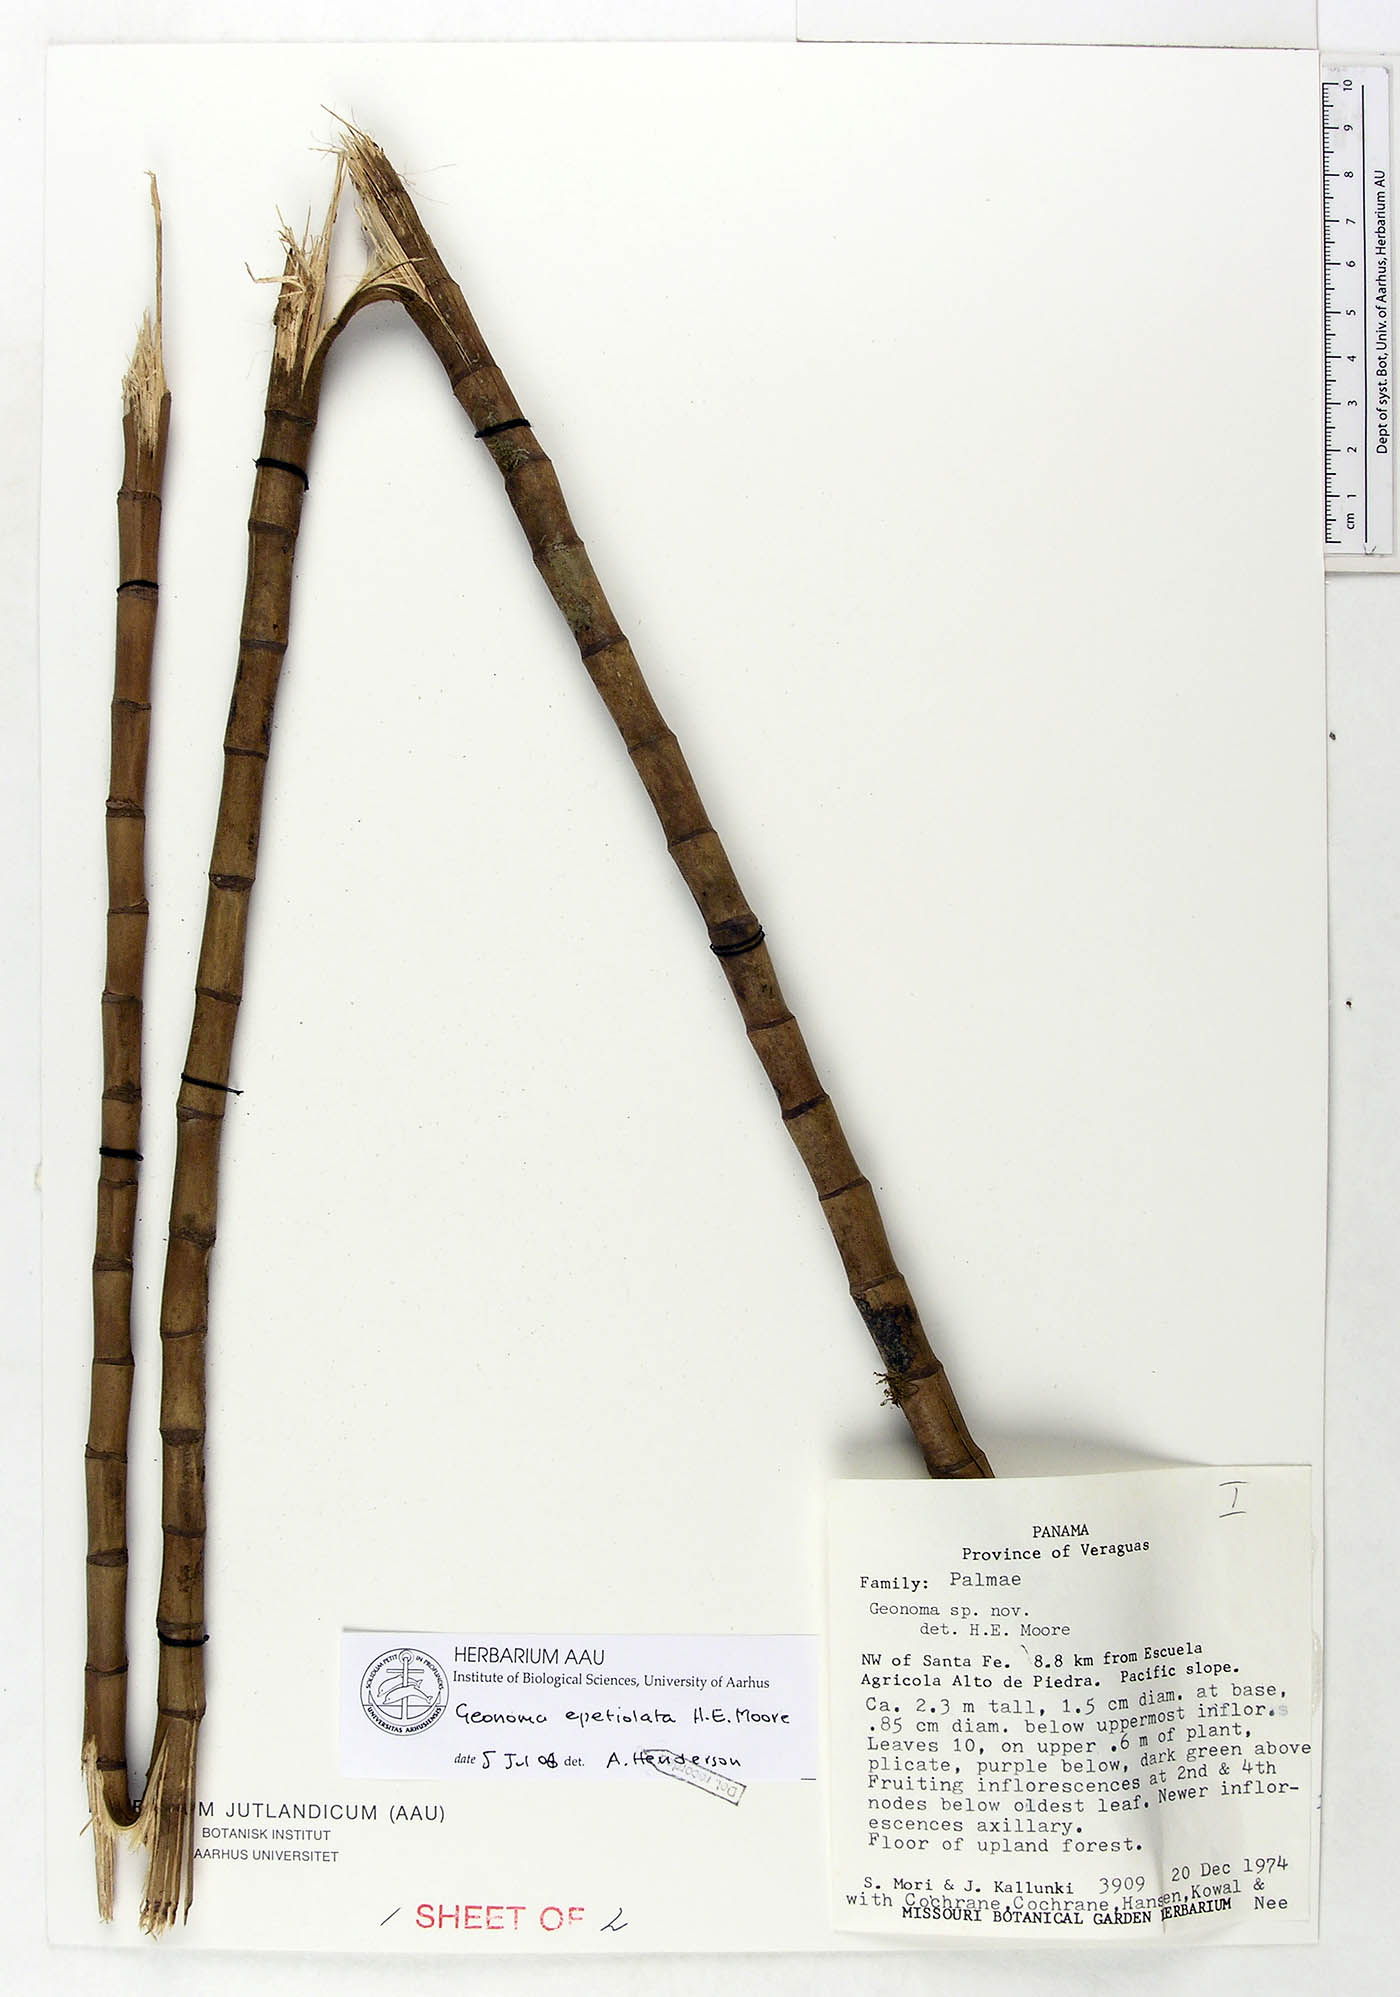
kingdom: Plantae
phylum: Tracheophyta
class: Liliopsida
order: Arecales
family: Arecaceae
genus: Geonoma
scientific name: Geonoma epetiolata
